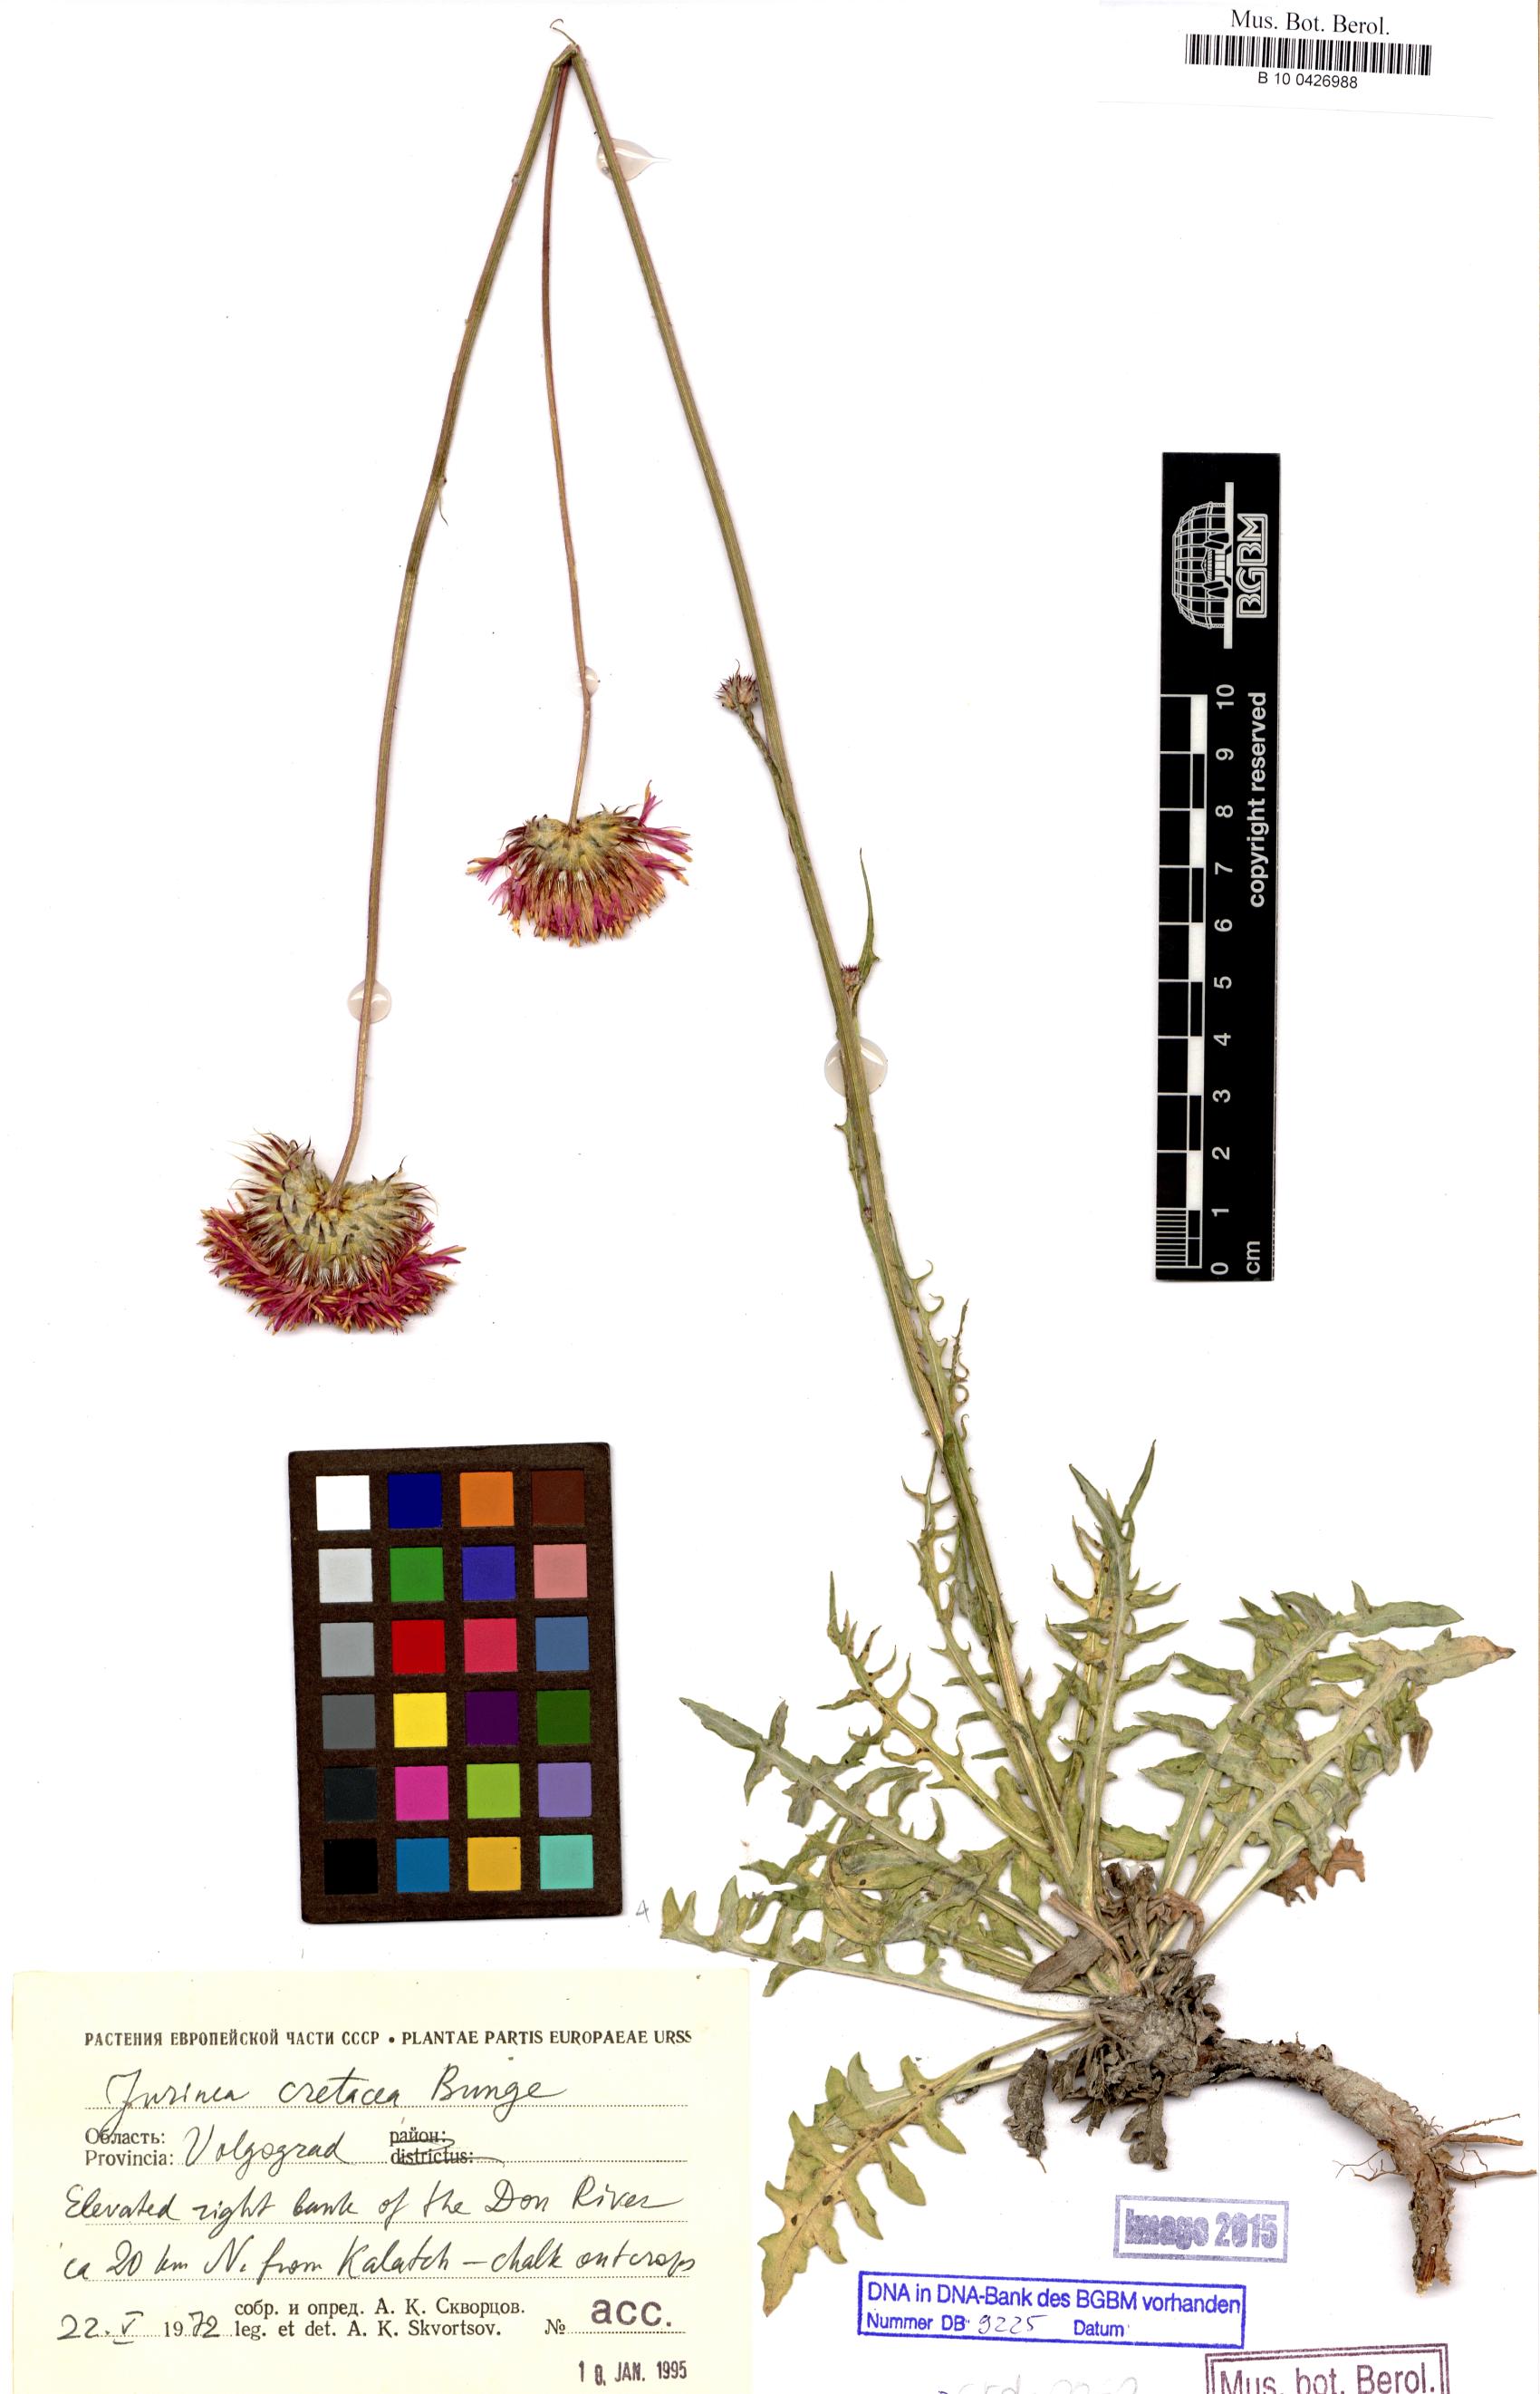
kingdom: Plantae
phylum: Tracheophyta
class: Magnoliopsida
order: Asterales
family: Asteraceae
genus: Jurinea
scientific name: Jurinea cretacea
